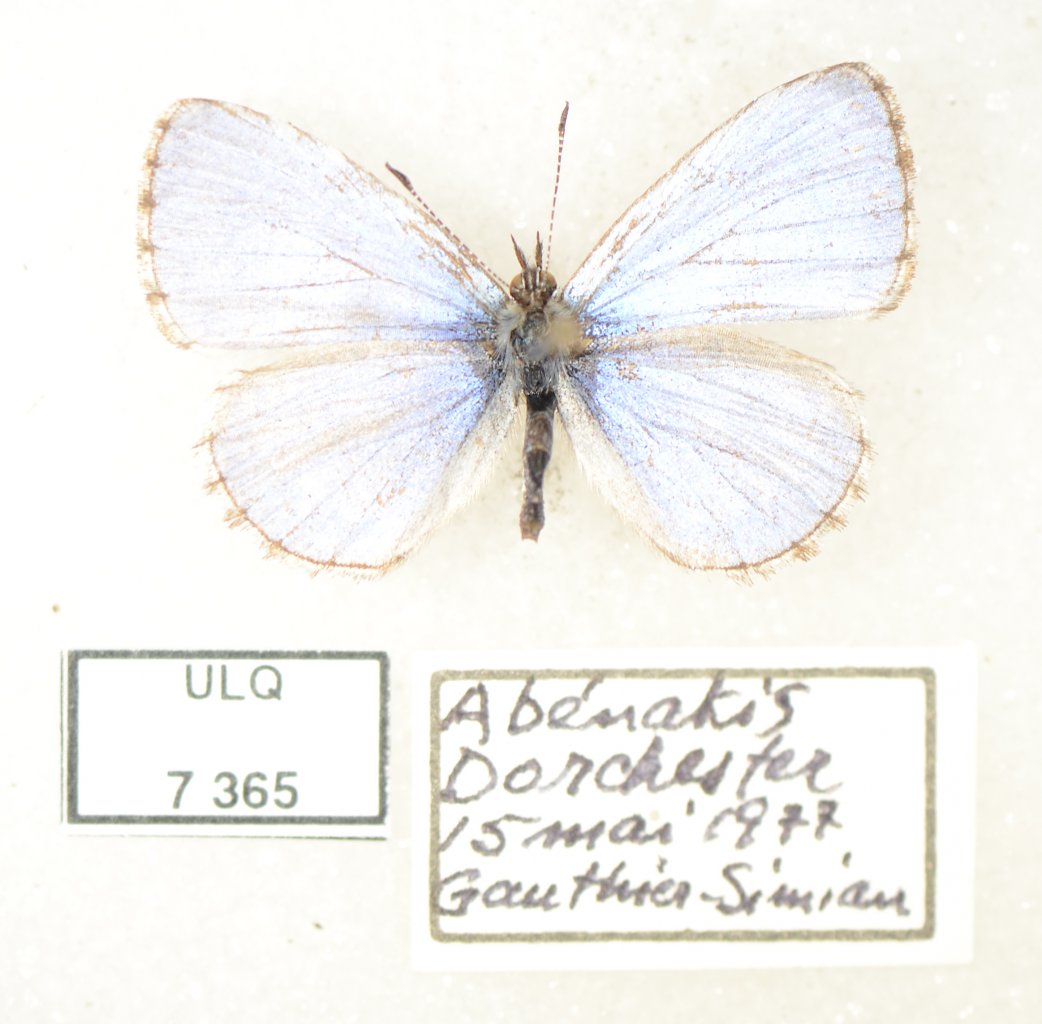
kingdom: Animalia
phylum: Arthropoda
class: Insecta
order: Lepidoptera
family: Lycaenidae
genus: Celastrina
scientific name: Celastrina lucia
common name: Northern Spring Azure
